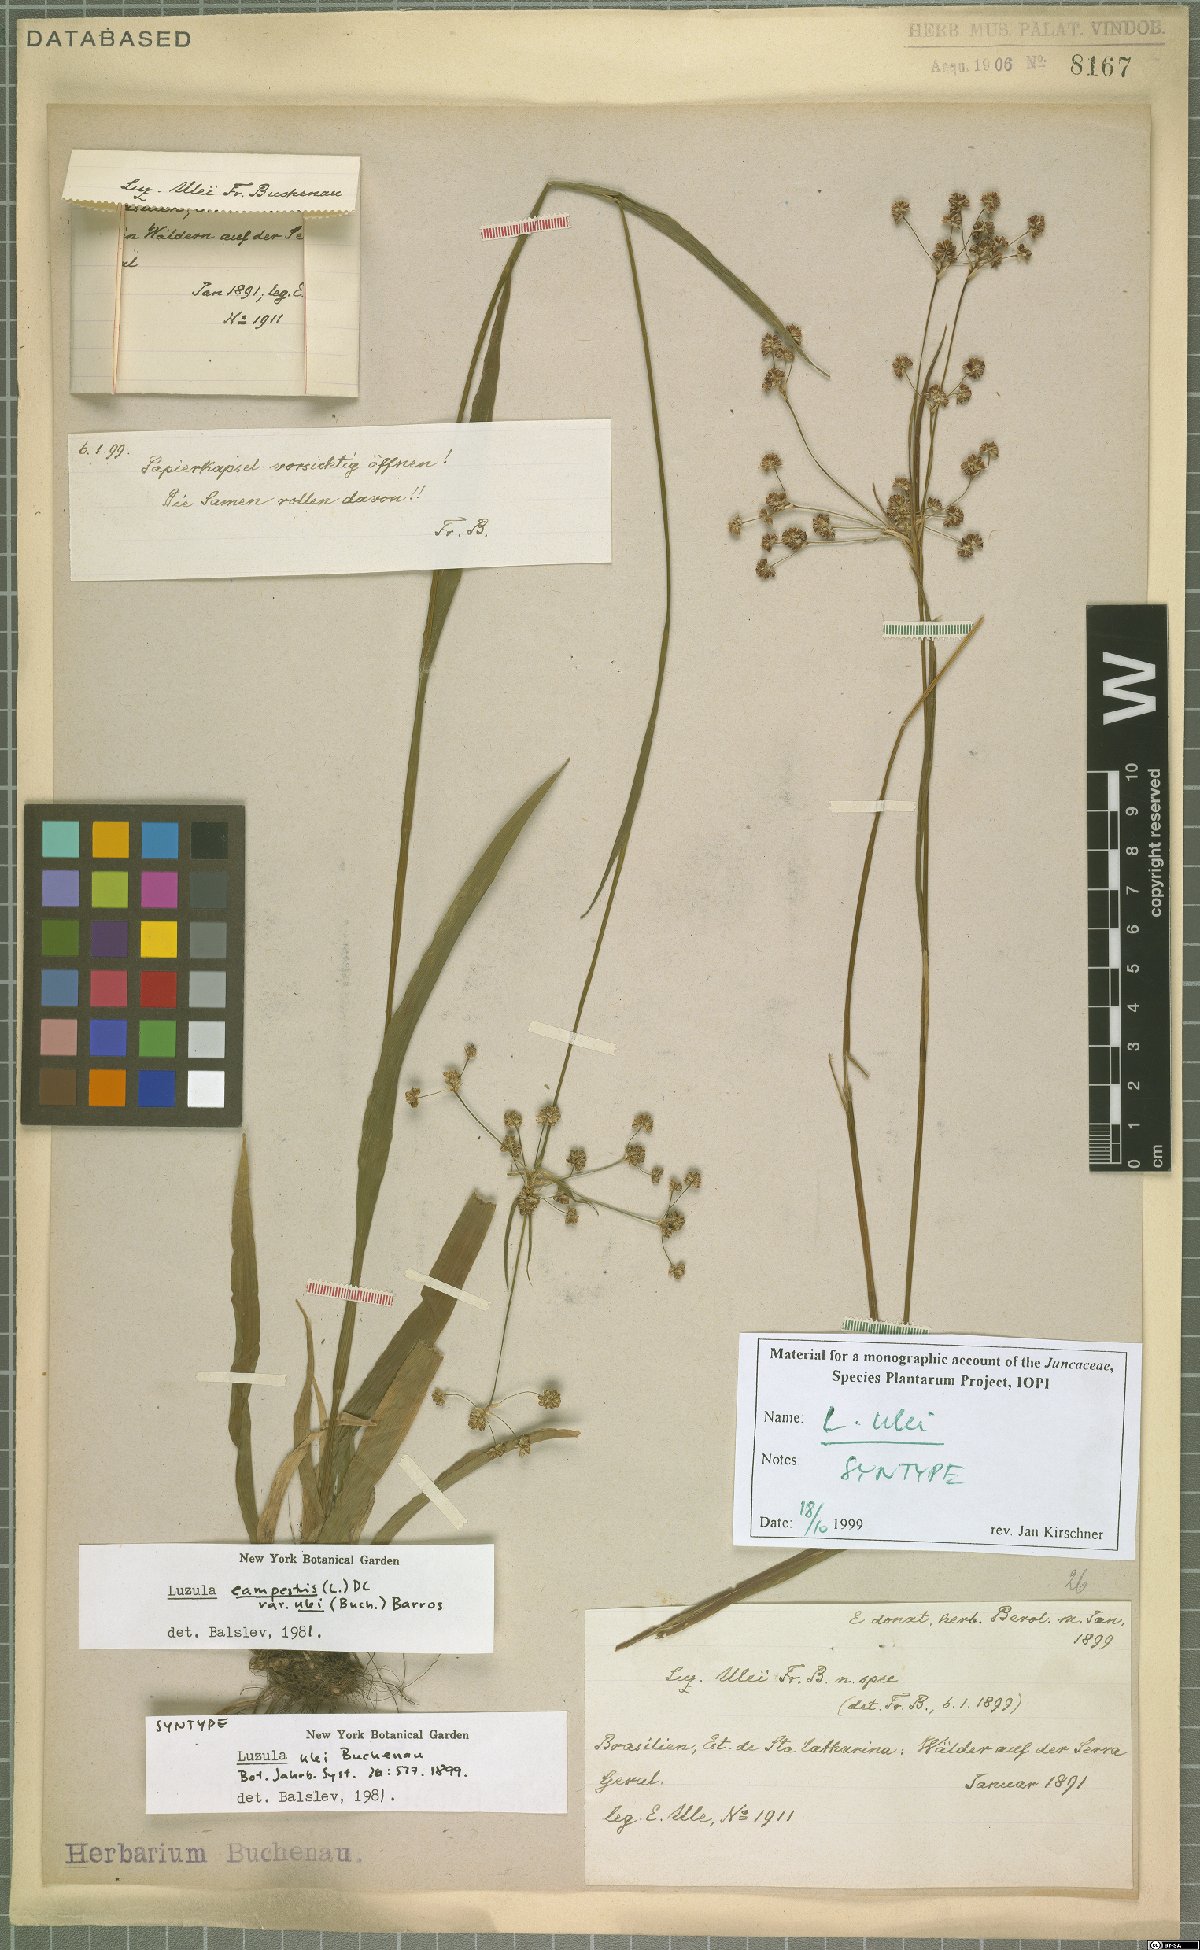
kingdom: Plantae
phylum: Tracheophyta
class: Liliopsida
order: Poales
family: Juncaceae
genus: Luzula
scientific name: Luzula ulei
